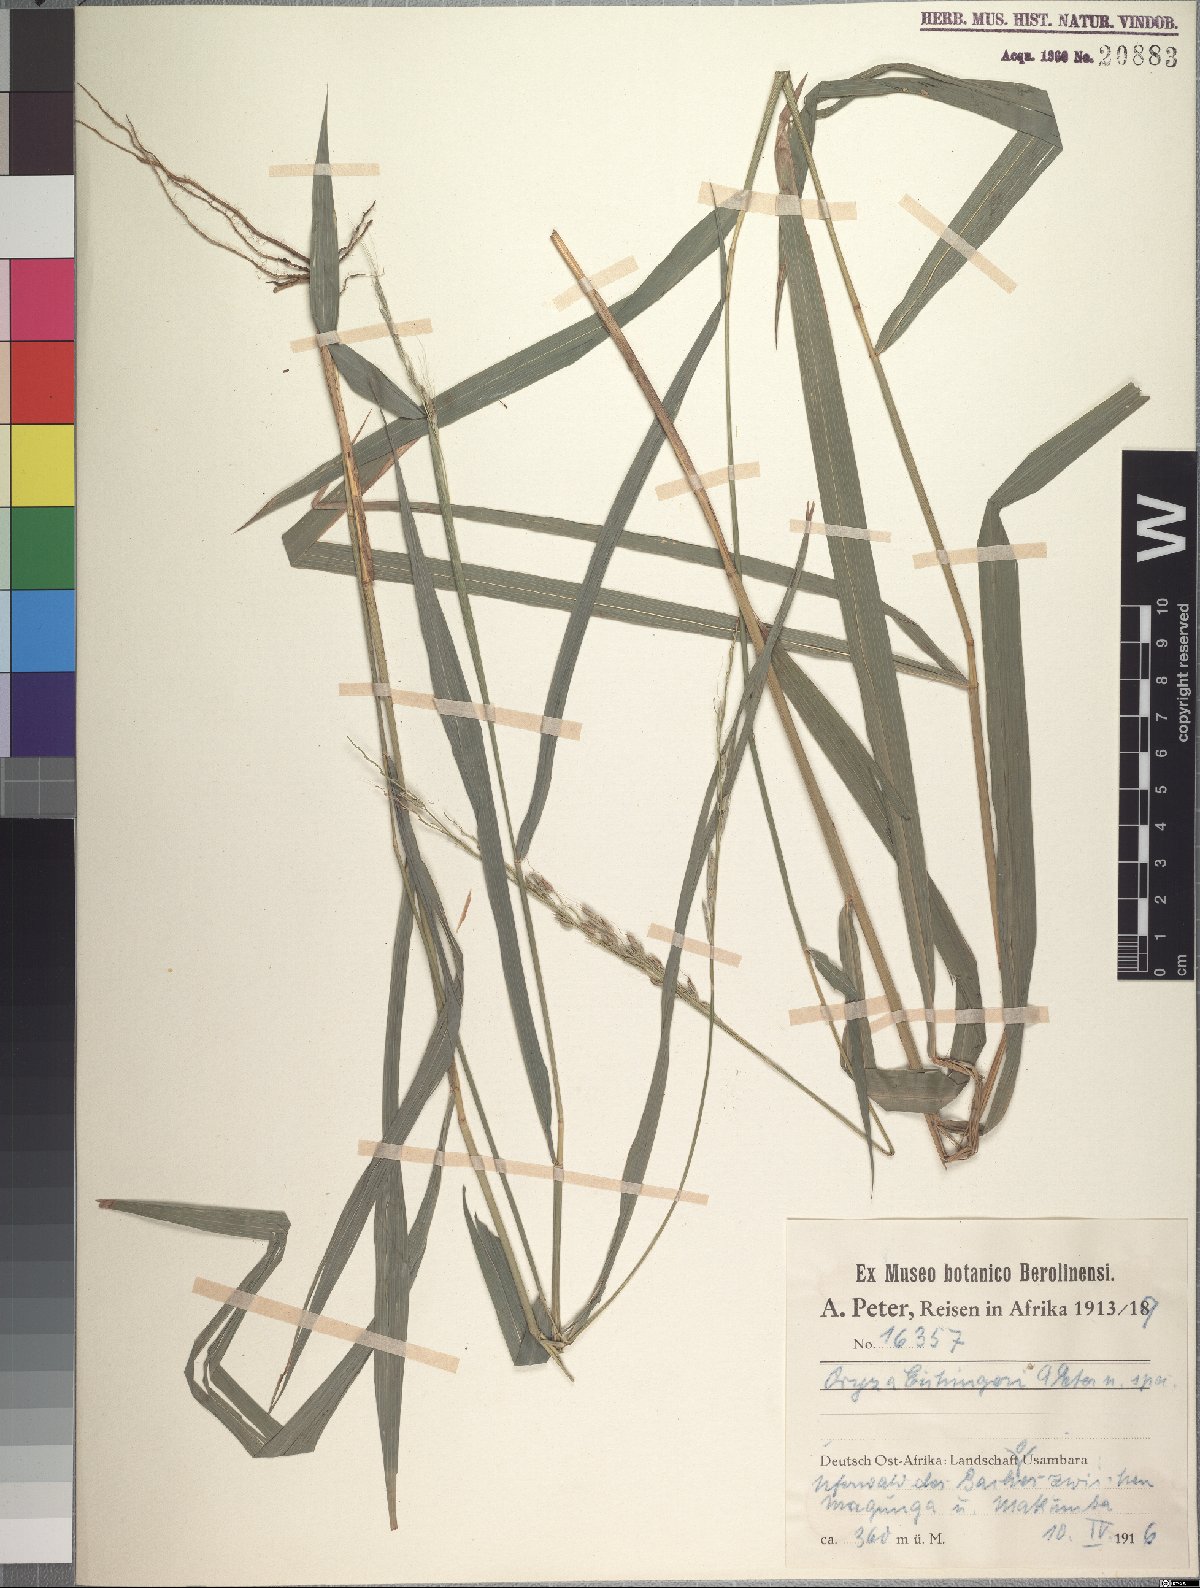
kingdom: Plantae
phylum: Tracheophyta
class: Liliopsida
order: Poales
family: Poaceae
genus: Oryza
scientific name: Oryza eichingeri
